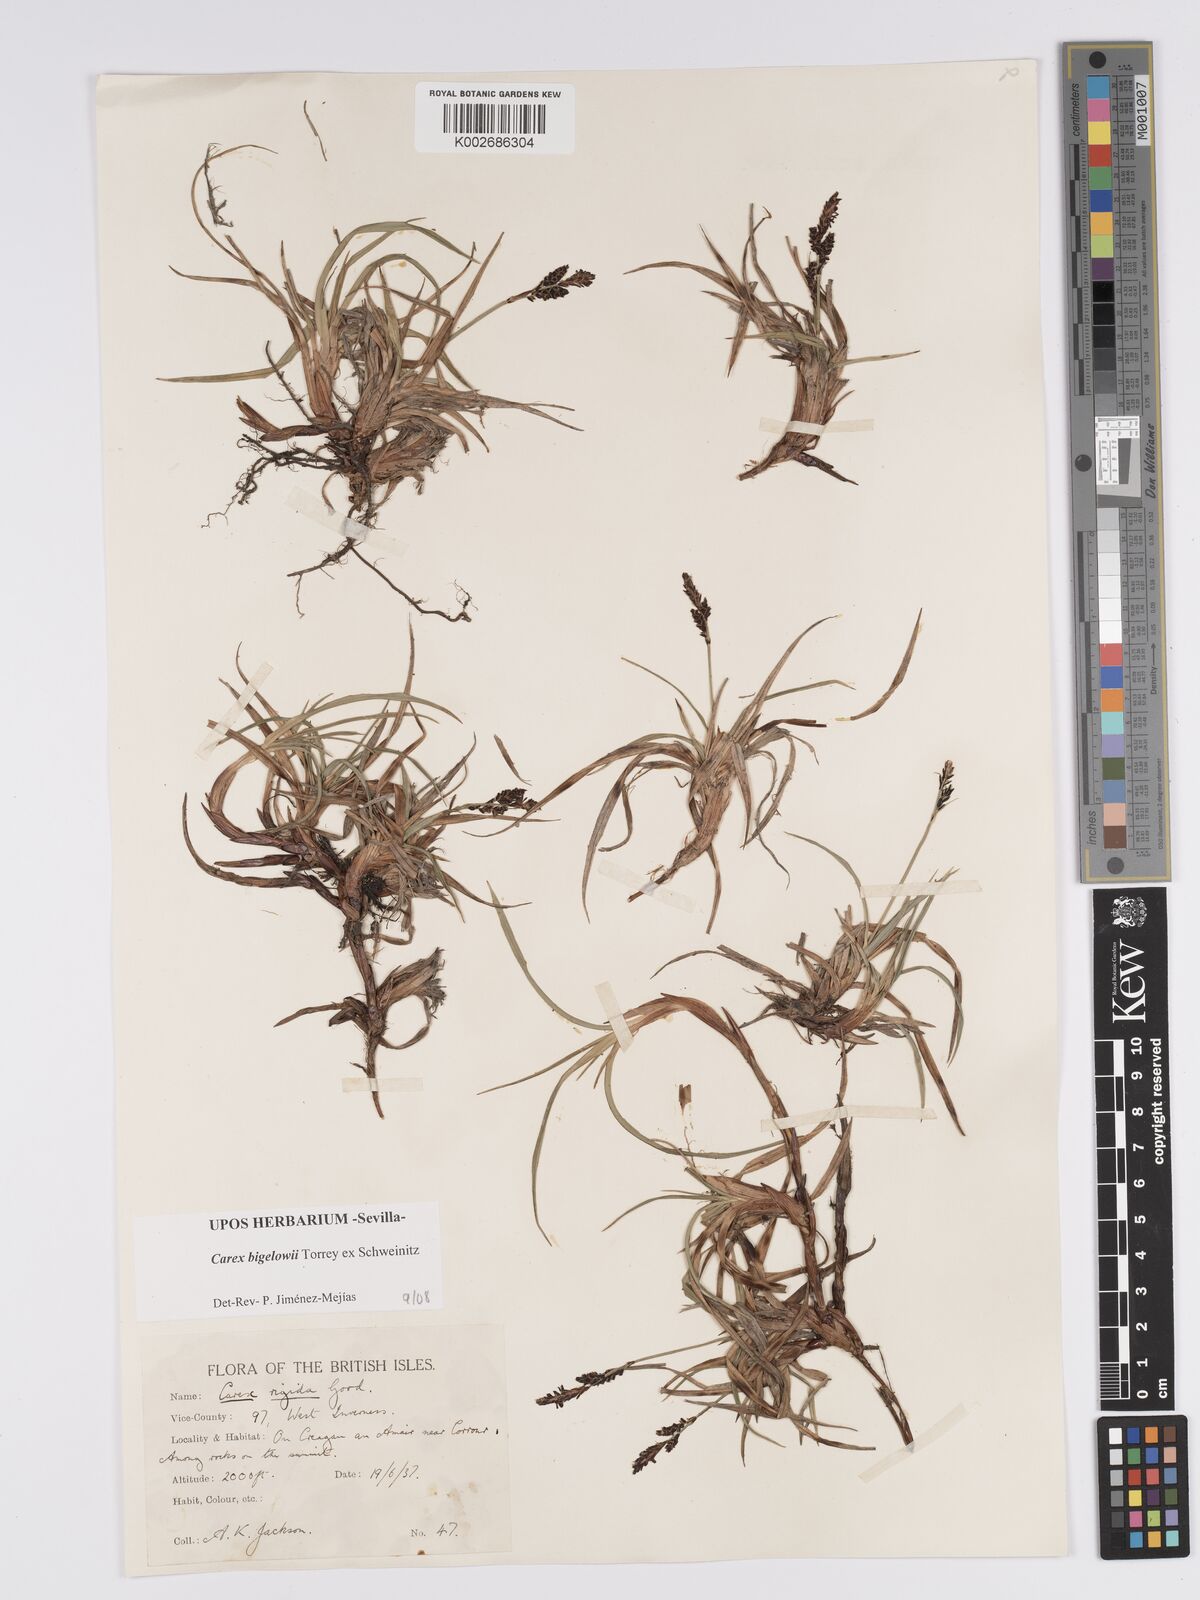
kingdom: Plantae
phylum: Tracheophyta
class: Liliopsida
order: Poales
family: Cyperaceae
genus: Carex
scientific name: Carex bigelowii
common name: Stiff sedge
